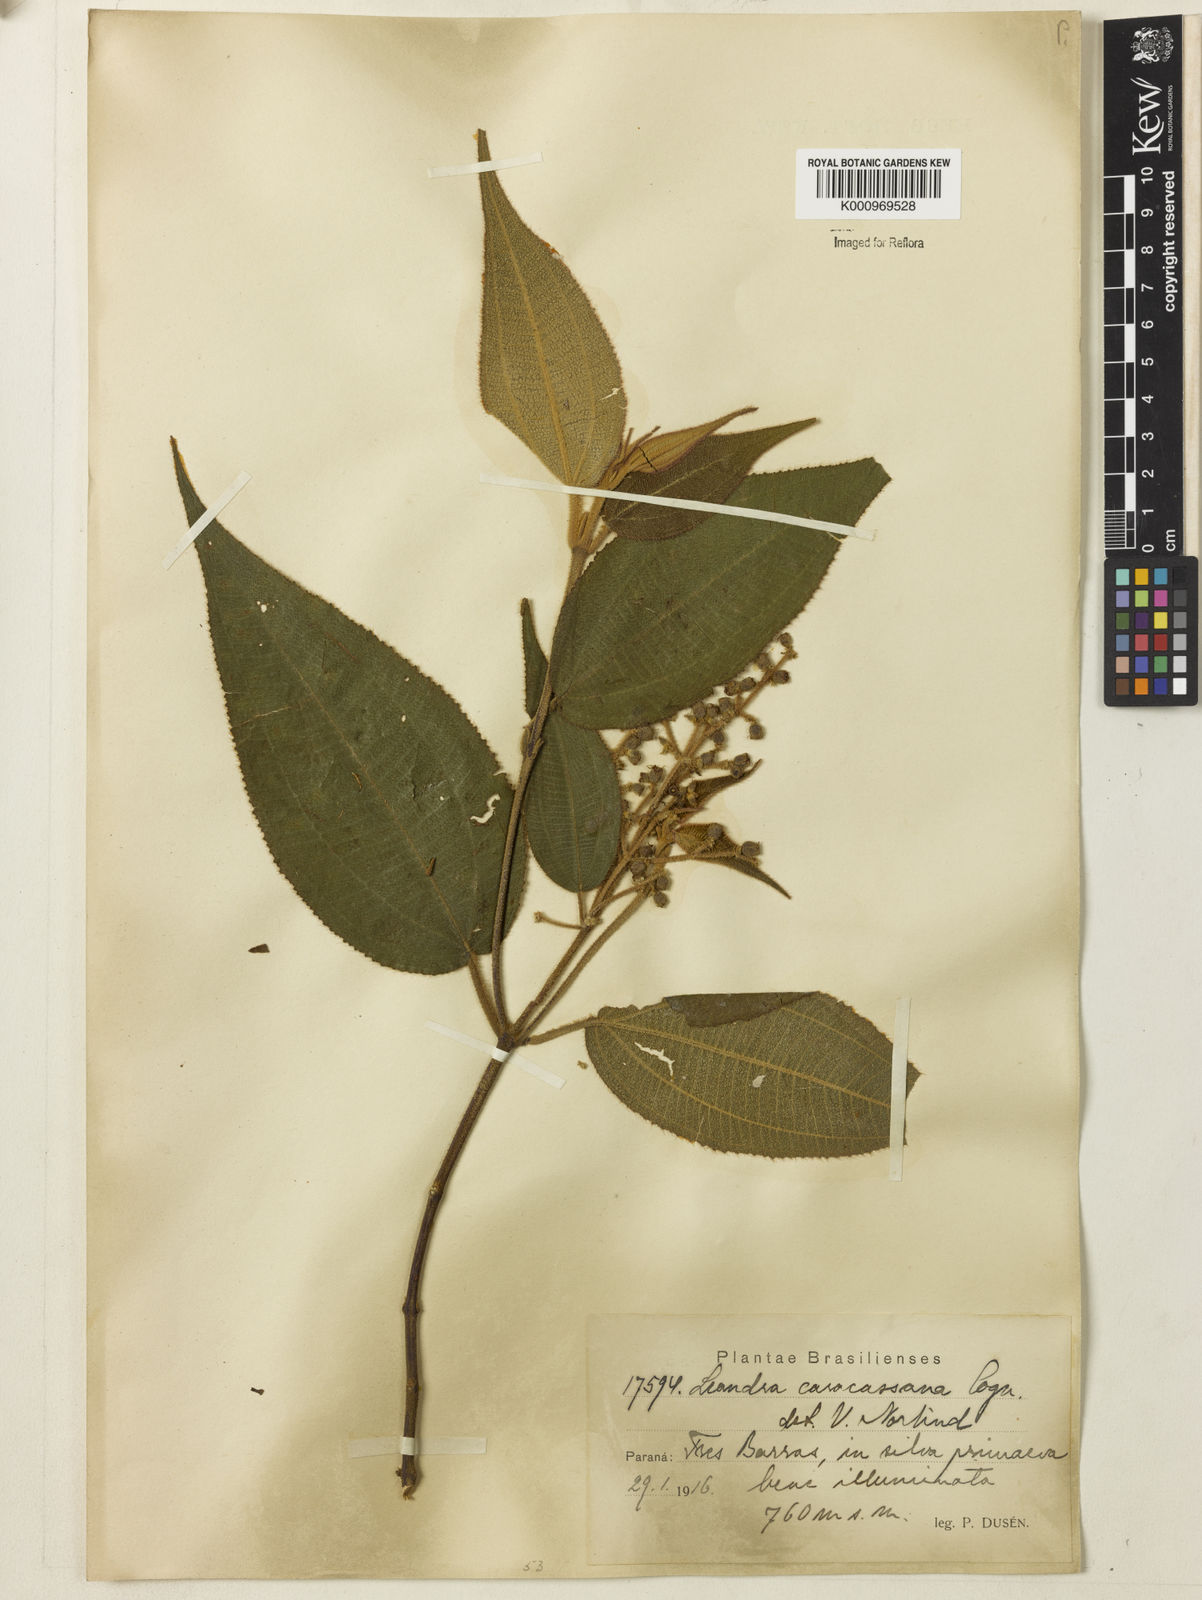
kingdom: Plantae
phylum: Tracheophyta
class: Magnoliopsida
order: Myrtales
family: Melastomataceae
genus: Miconia
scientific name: Miconia sublanata
